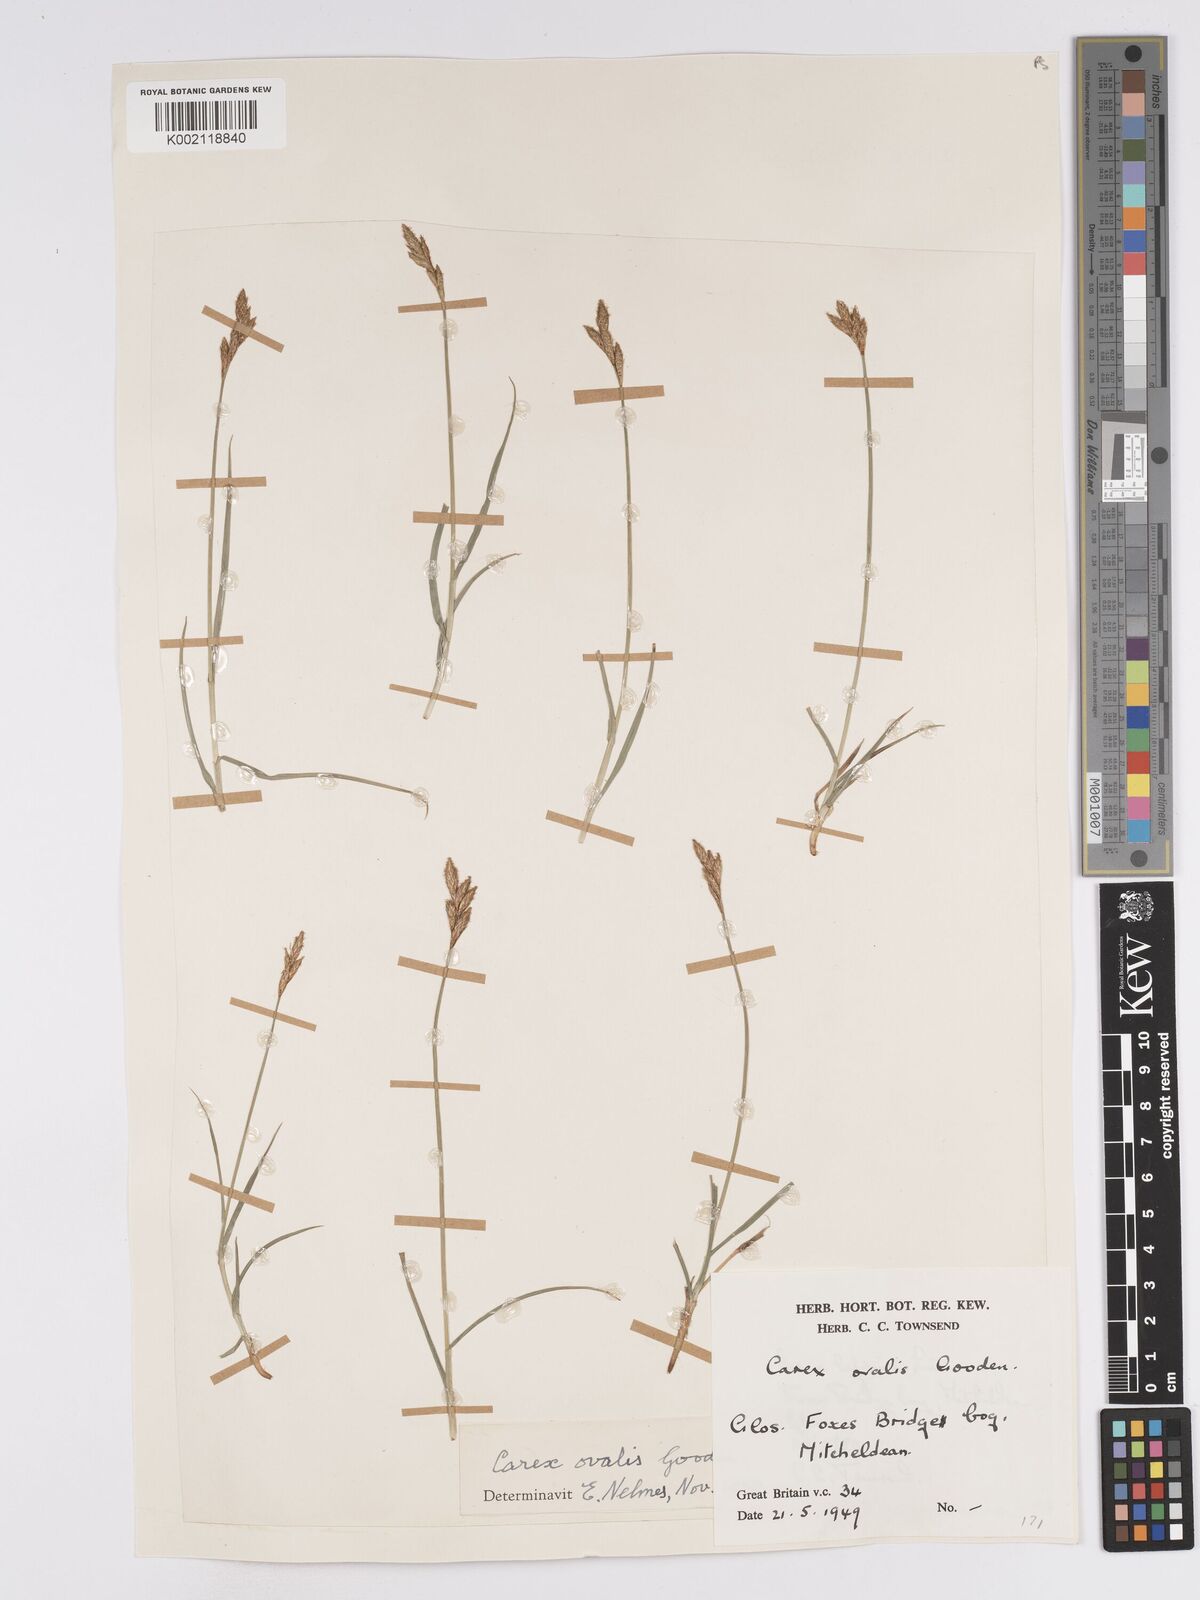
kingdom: Plantae
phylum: Tracheophyta
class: Liliopsida
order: Poales
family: Cyperaceae
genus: Carex
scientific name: Carex leporina
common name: Oval sedge
